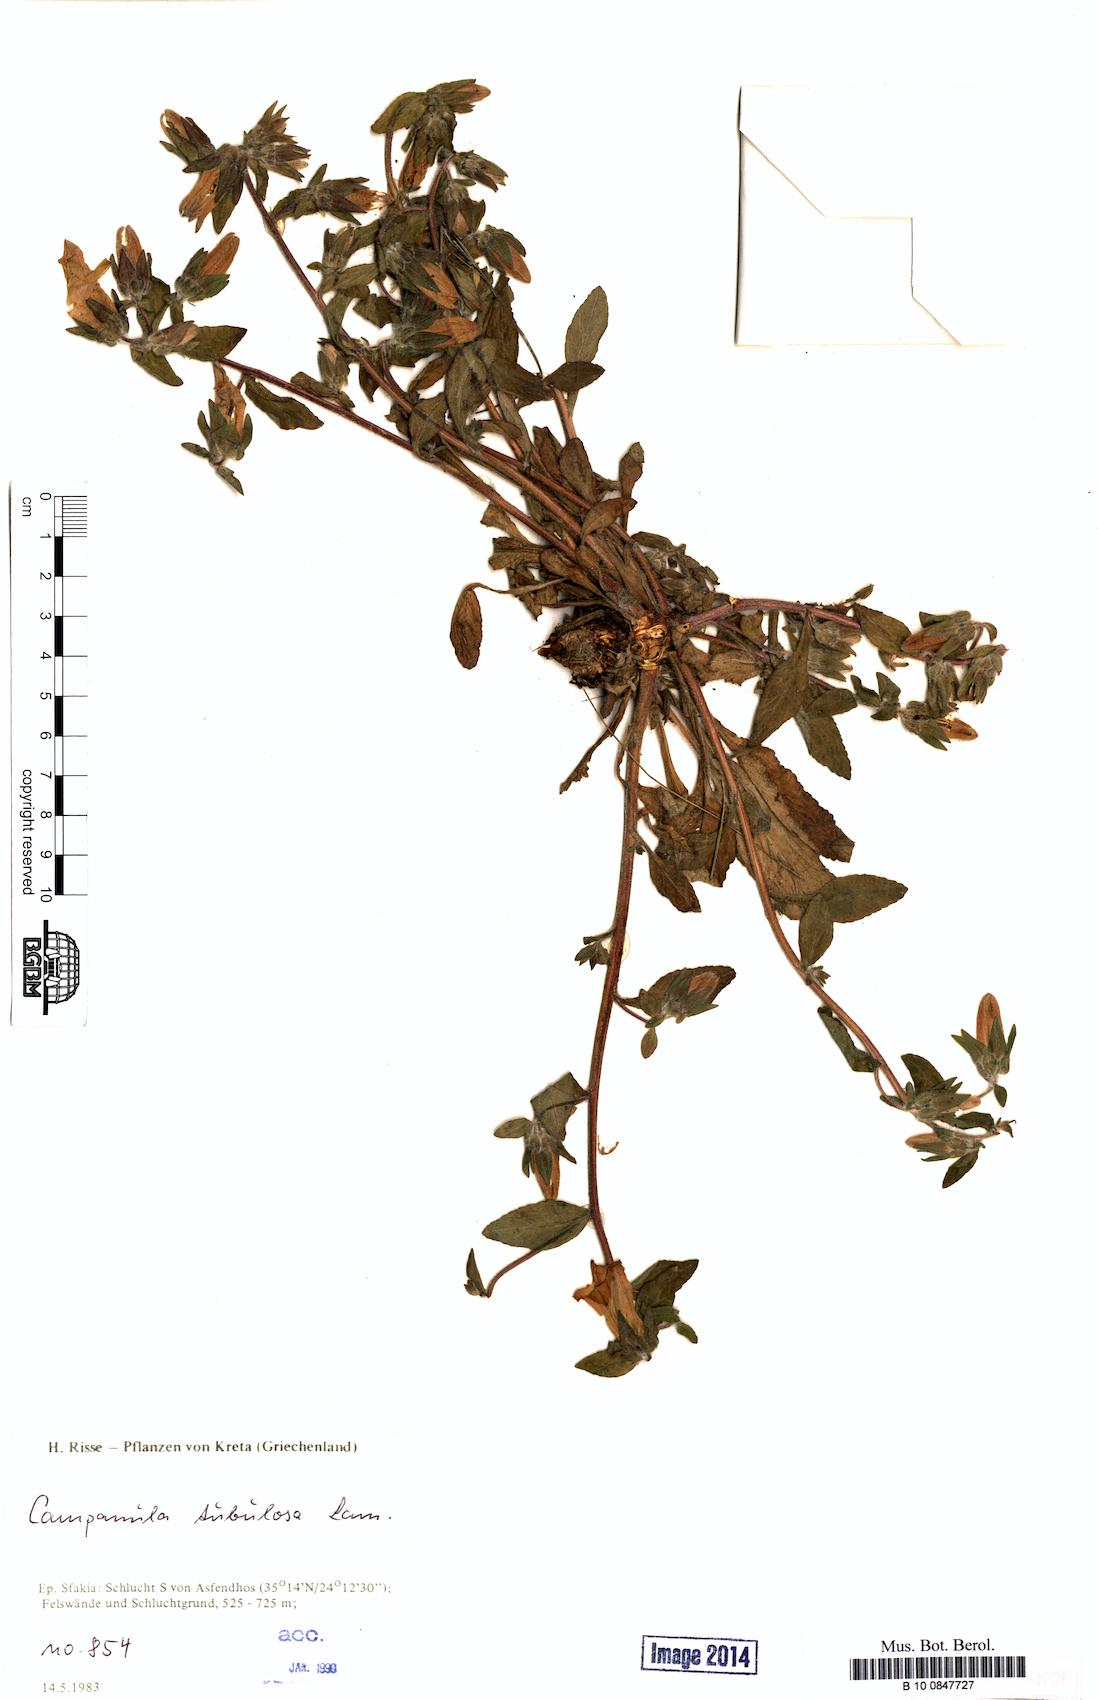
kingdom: Plantae
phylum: Tracheophyta
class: Magnoliopsida
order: Asterales
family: Campanulaceae
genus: Campanula
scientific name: Campanula tubulosa
